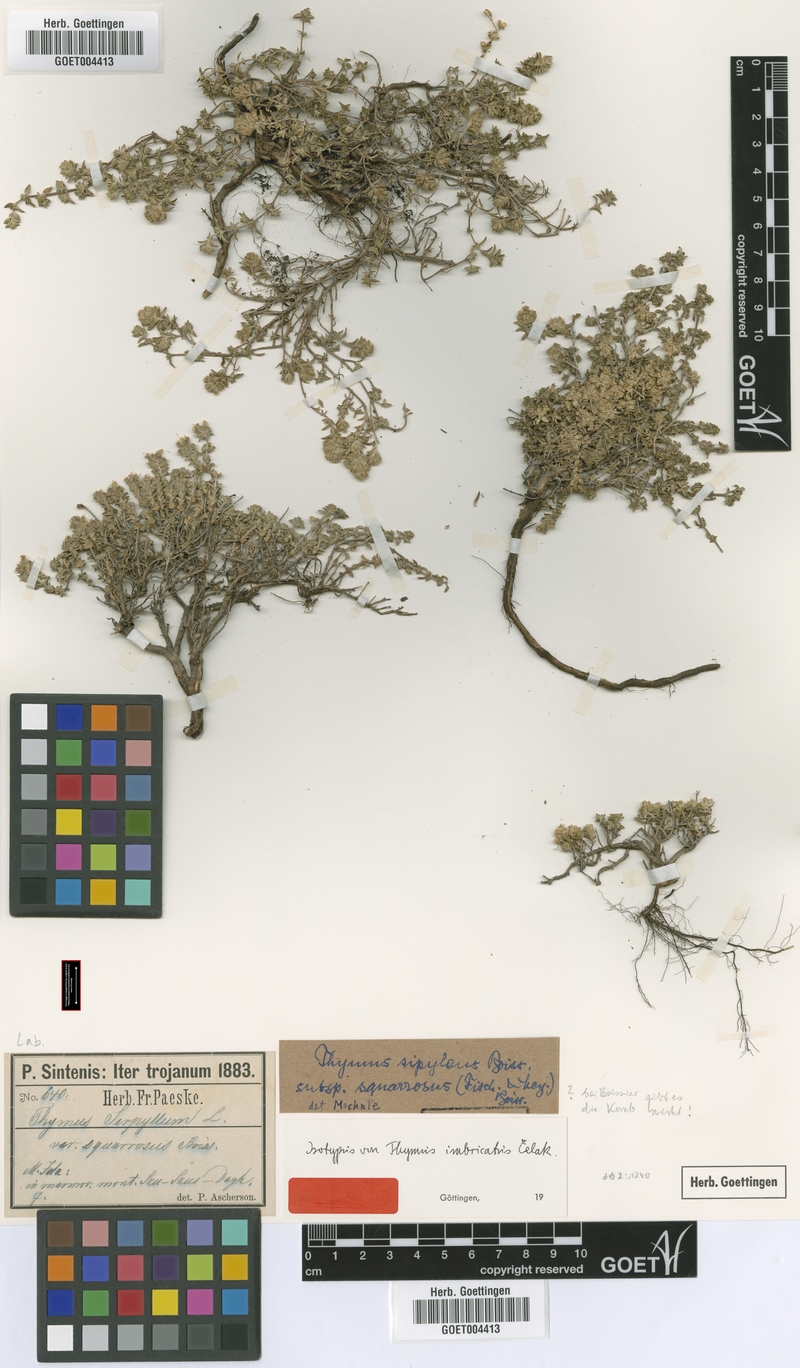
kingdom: Plantae
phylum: Tracheophyta
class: Magnoliopsida
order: Lamiales
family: Lamiaceae
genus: Thymus
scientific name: Thymus sipyleus
